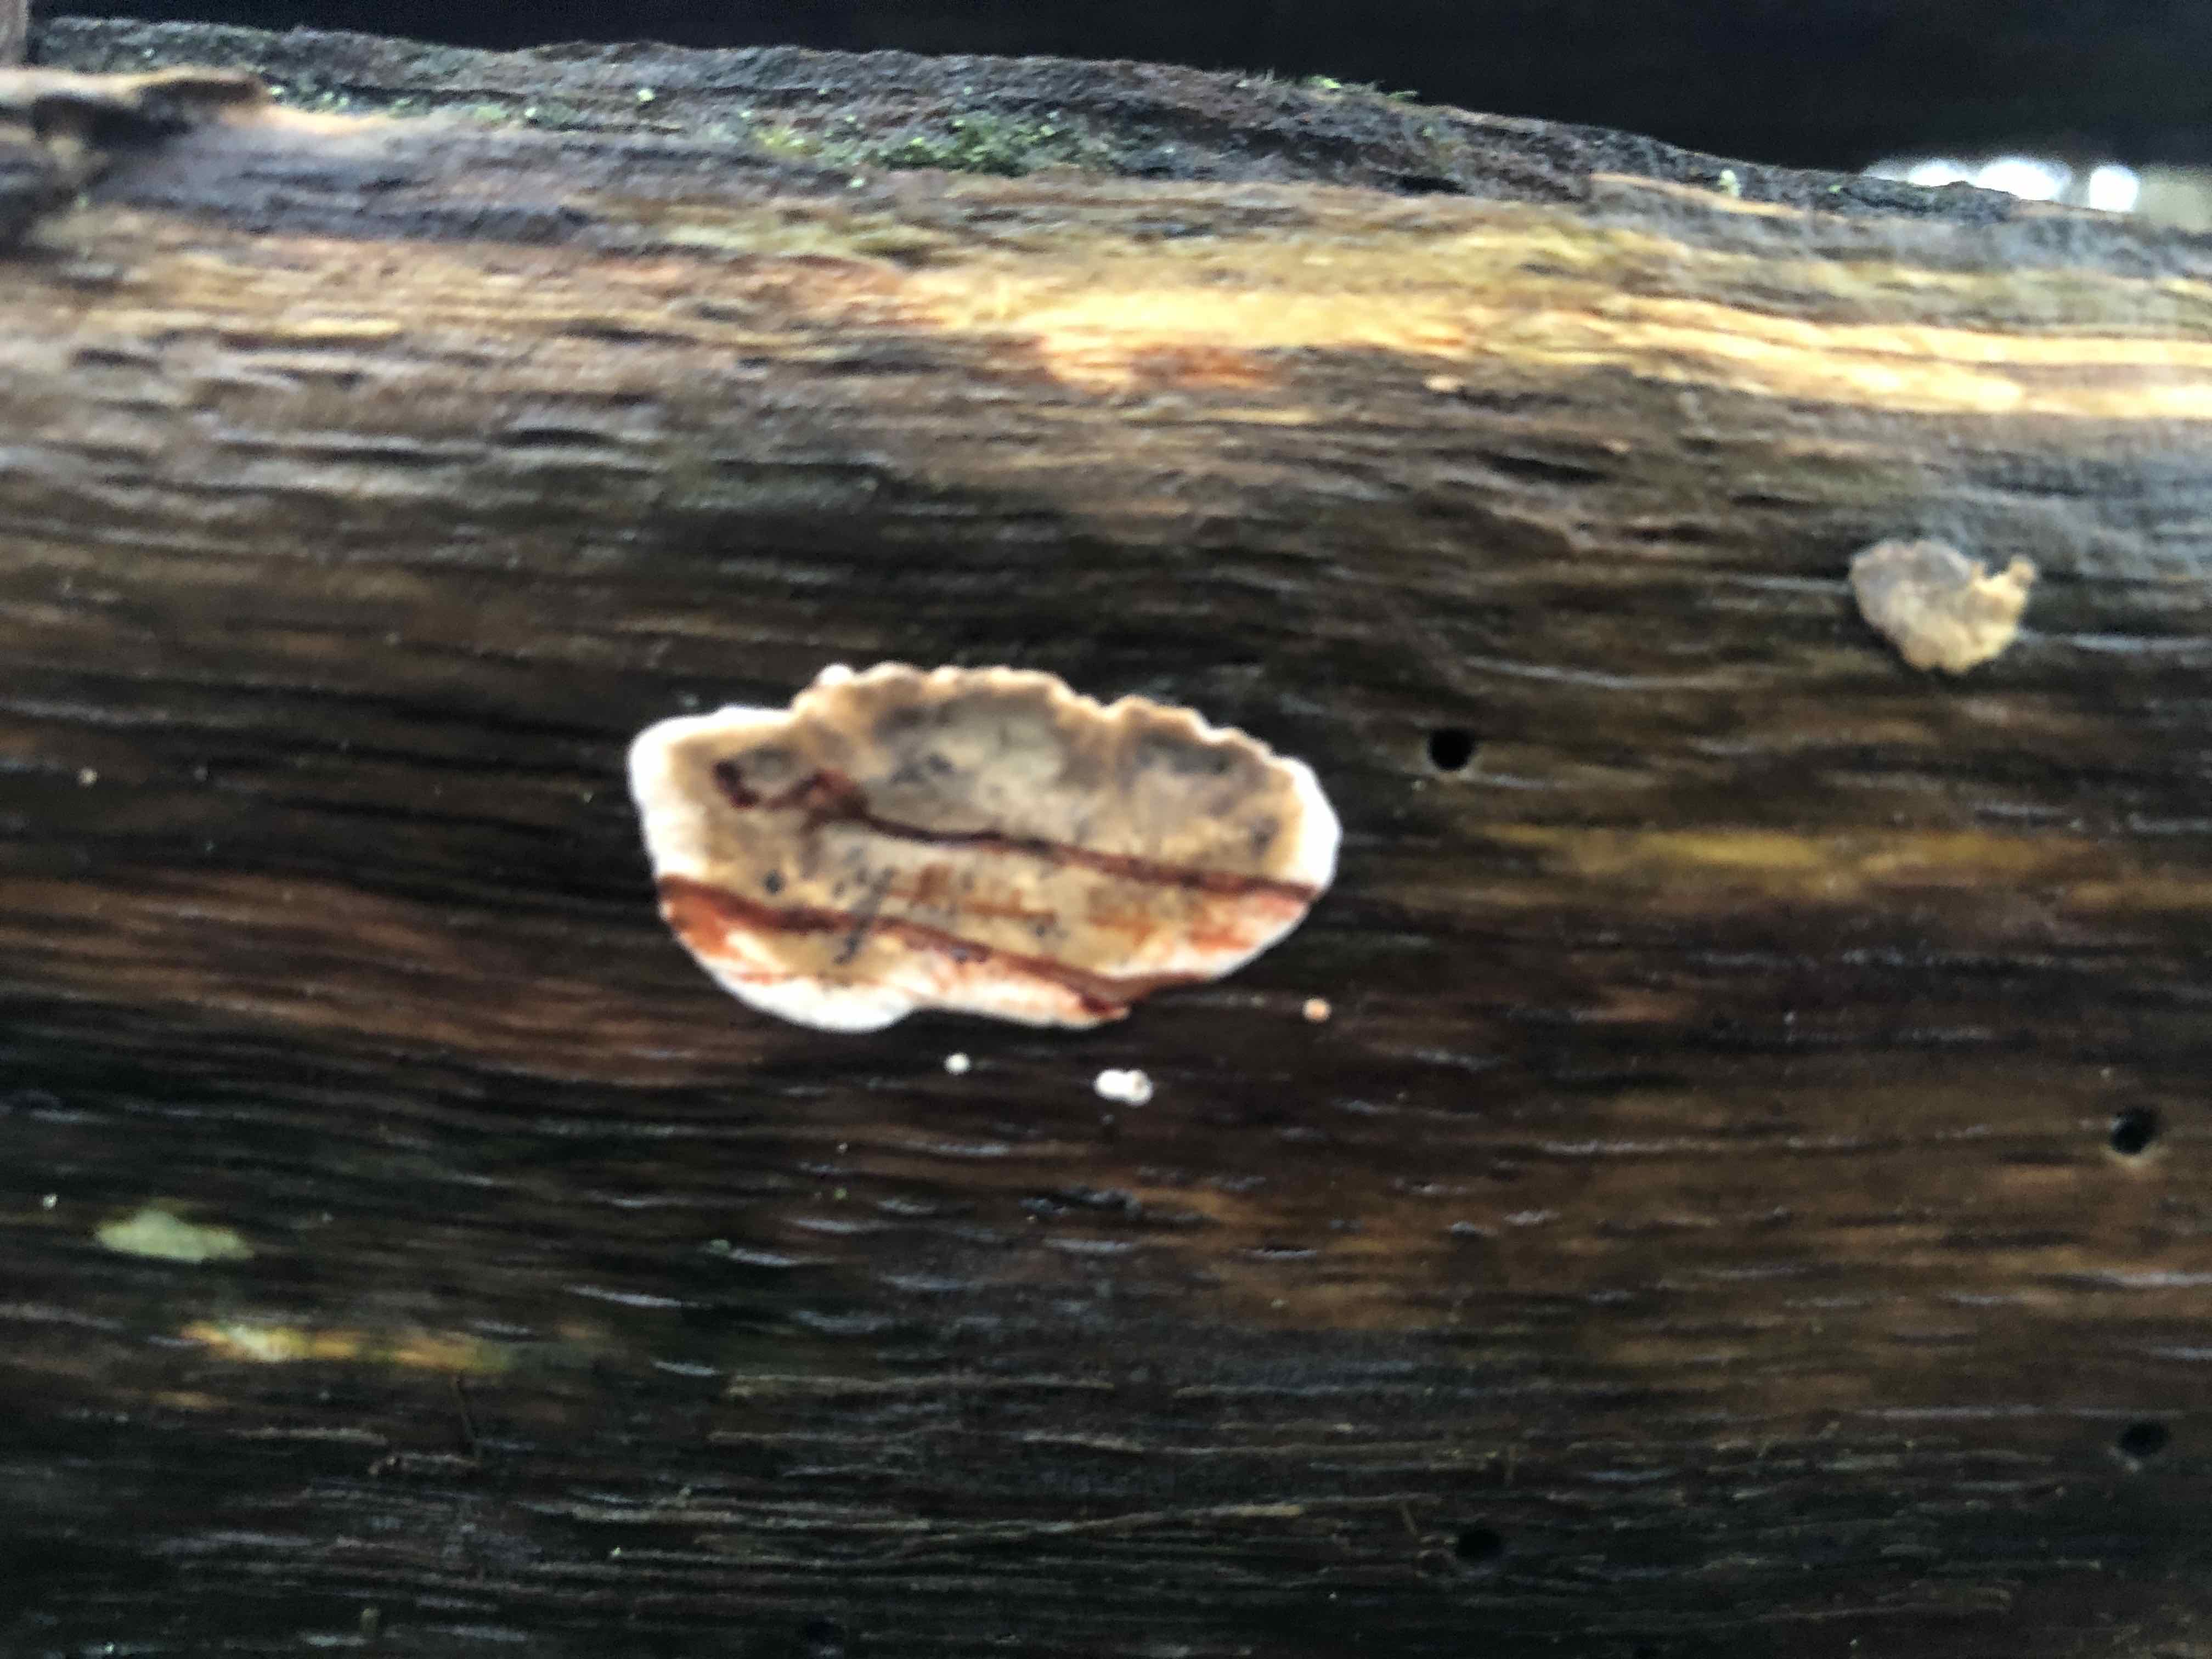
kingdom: Fungi
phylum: Basidiomycota
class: Agaricomycetes
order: Russulales
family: Stereaceae
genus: Stereum
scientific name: Stereum sanguinolentum
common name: blødende lædersvamp
